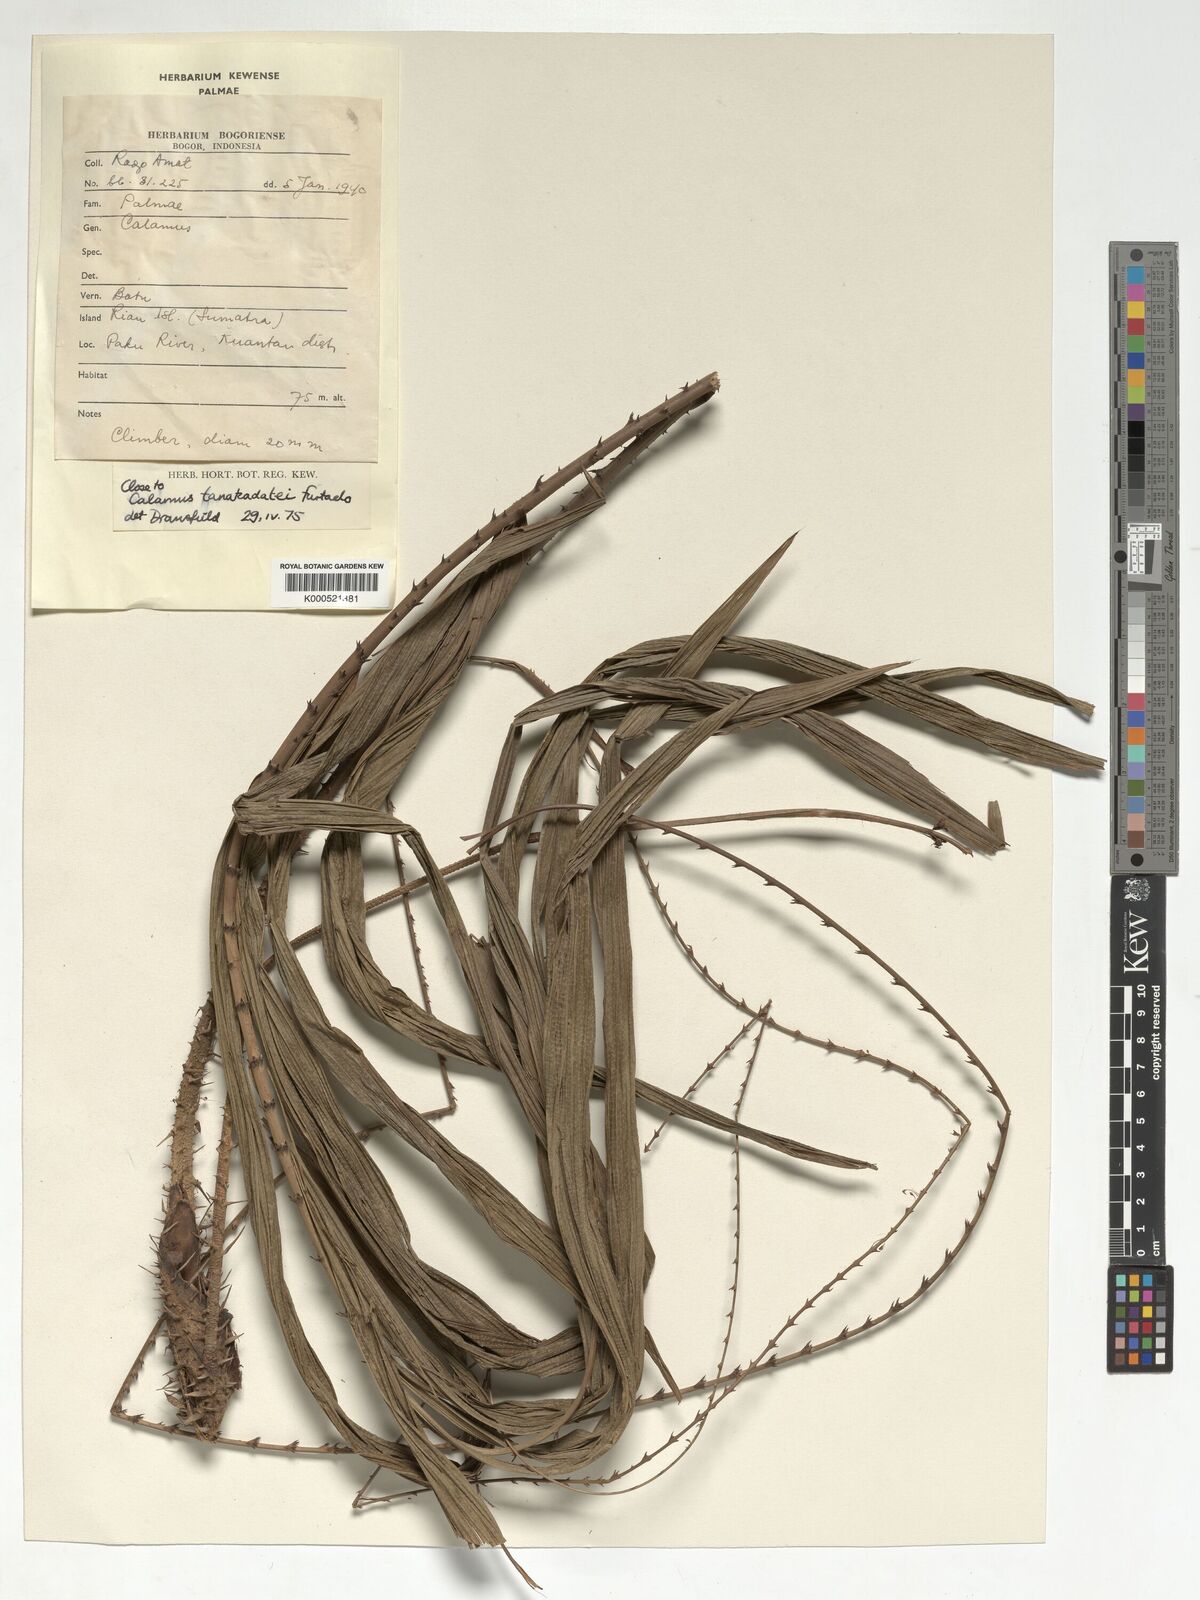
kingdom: Plantae
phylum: Tracheophyta
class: Liliopsida
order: Arecales
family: Arecaceae
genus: Calamus
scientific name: Calamus ruvidus
